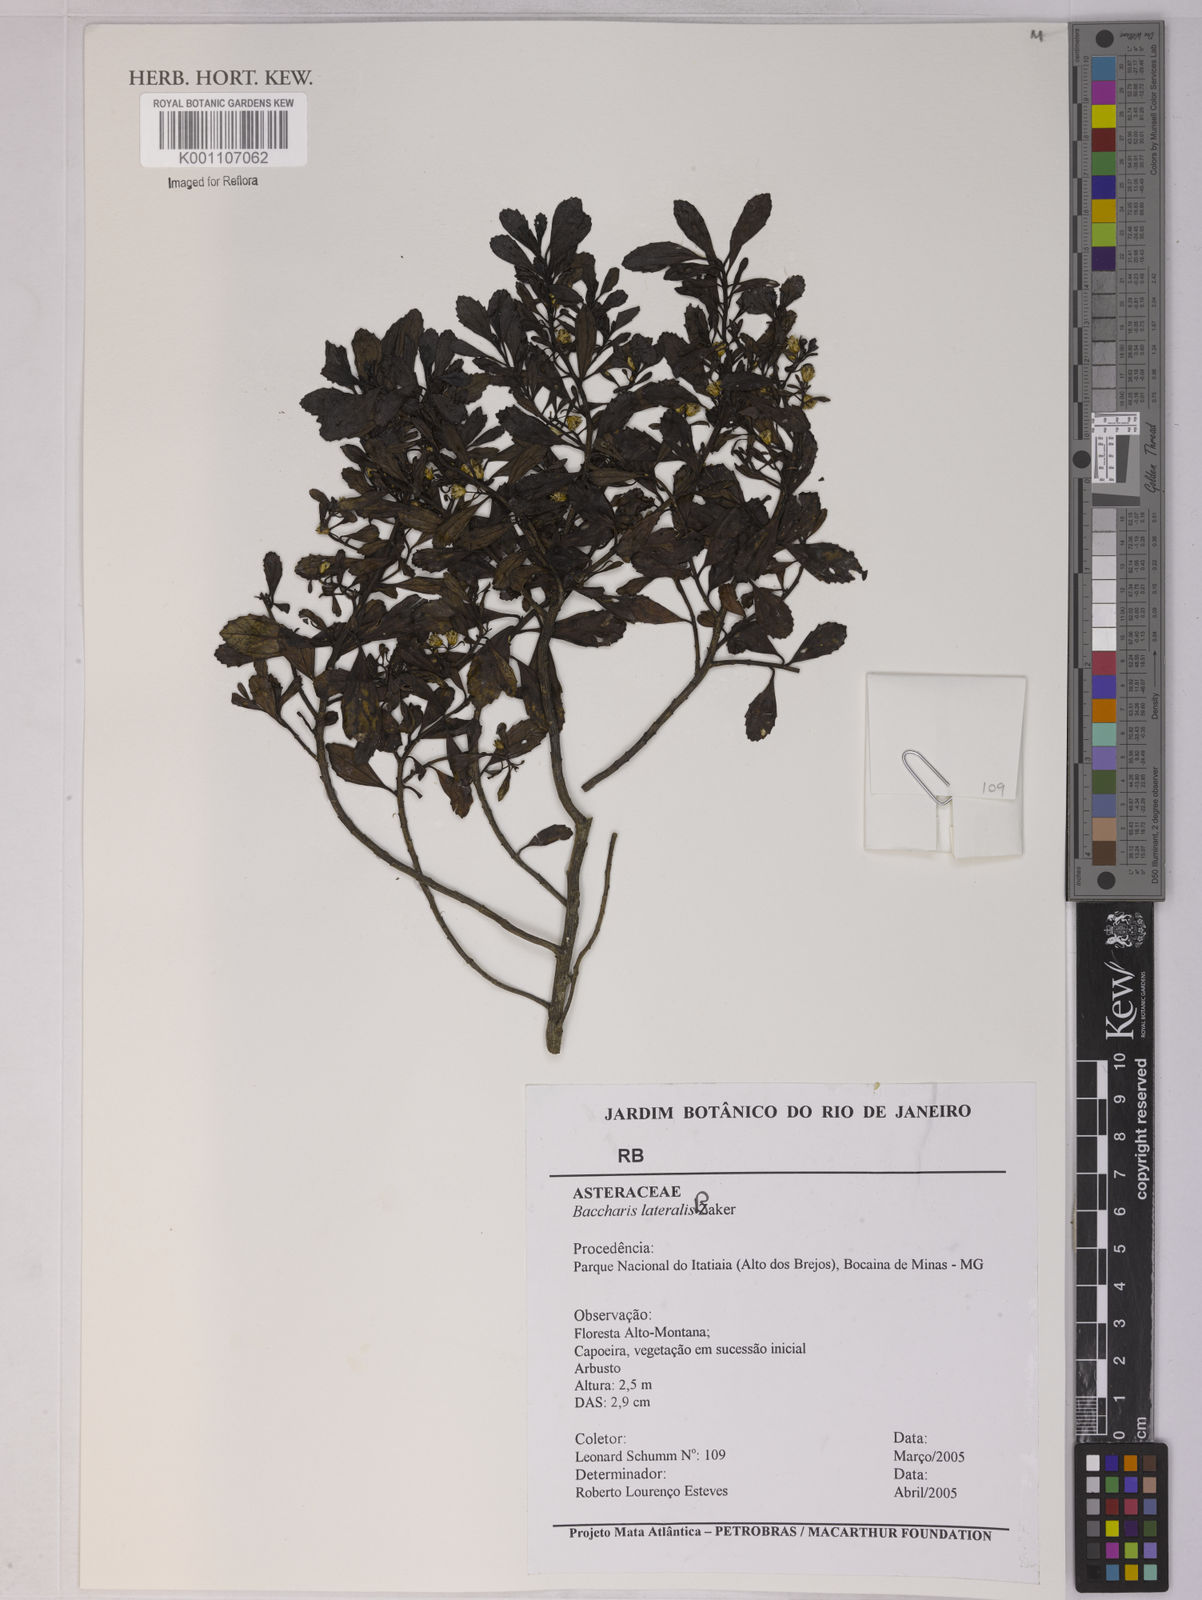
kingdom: Plantae
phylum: Tracheophyta
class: Magnoliopsida
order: Asterales
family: Asteraceae
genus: Baccharis
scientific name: Baccharis lateralis
